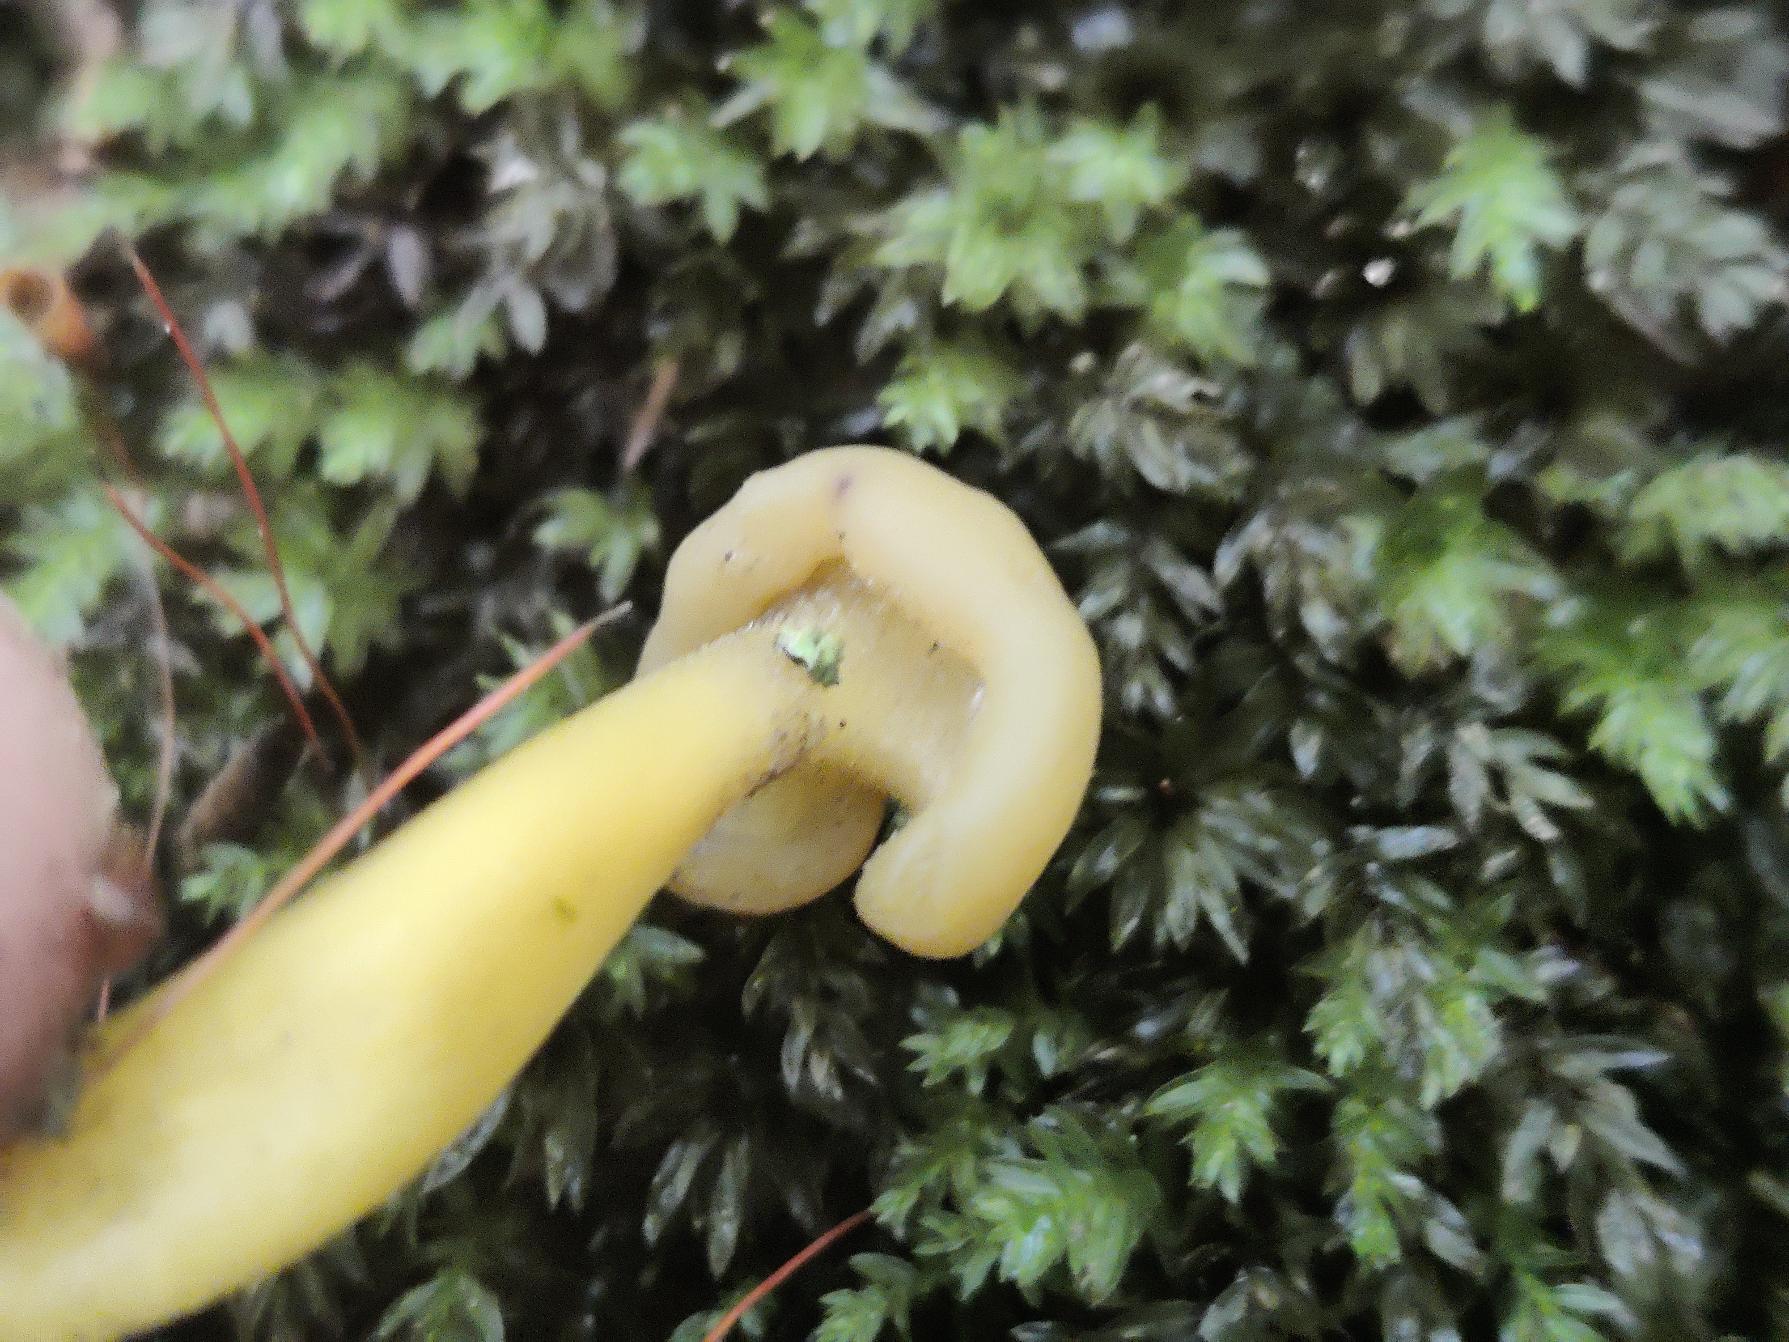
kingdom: Fungi
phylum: Ascomycota
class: Leotiomycetes
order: Leotiales
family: Leotiaceae
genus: Leotia
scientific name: Leotia lubrica
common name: Ravsvamp
